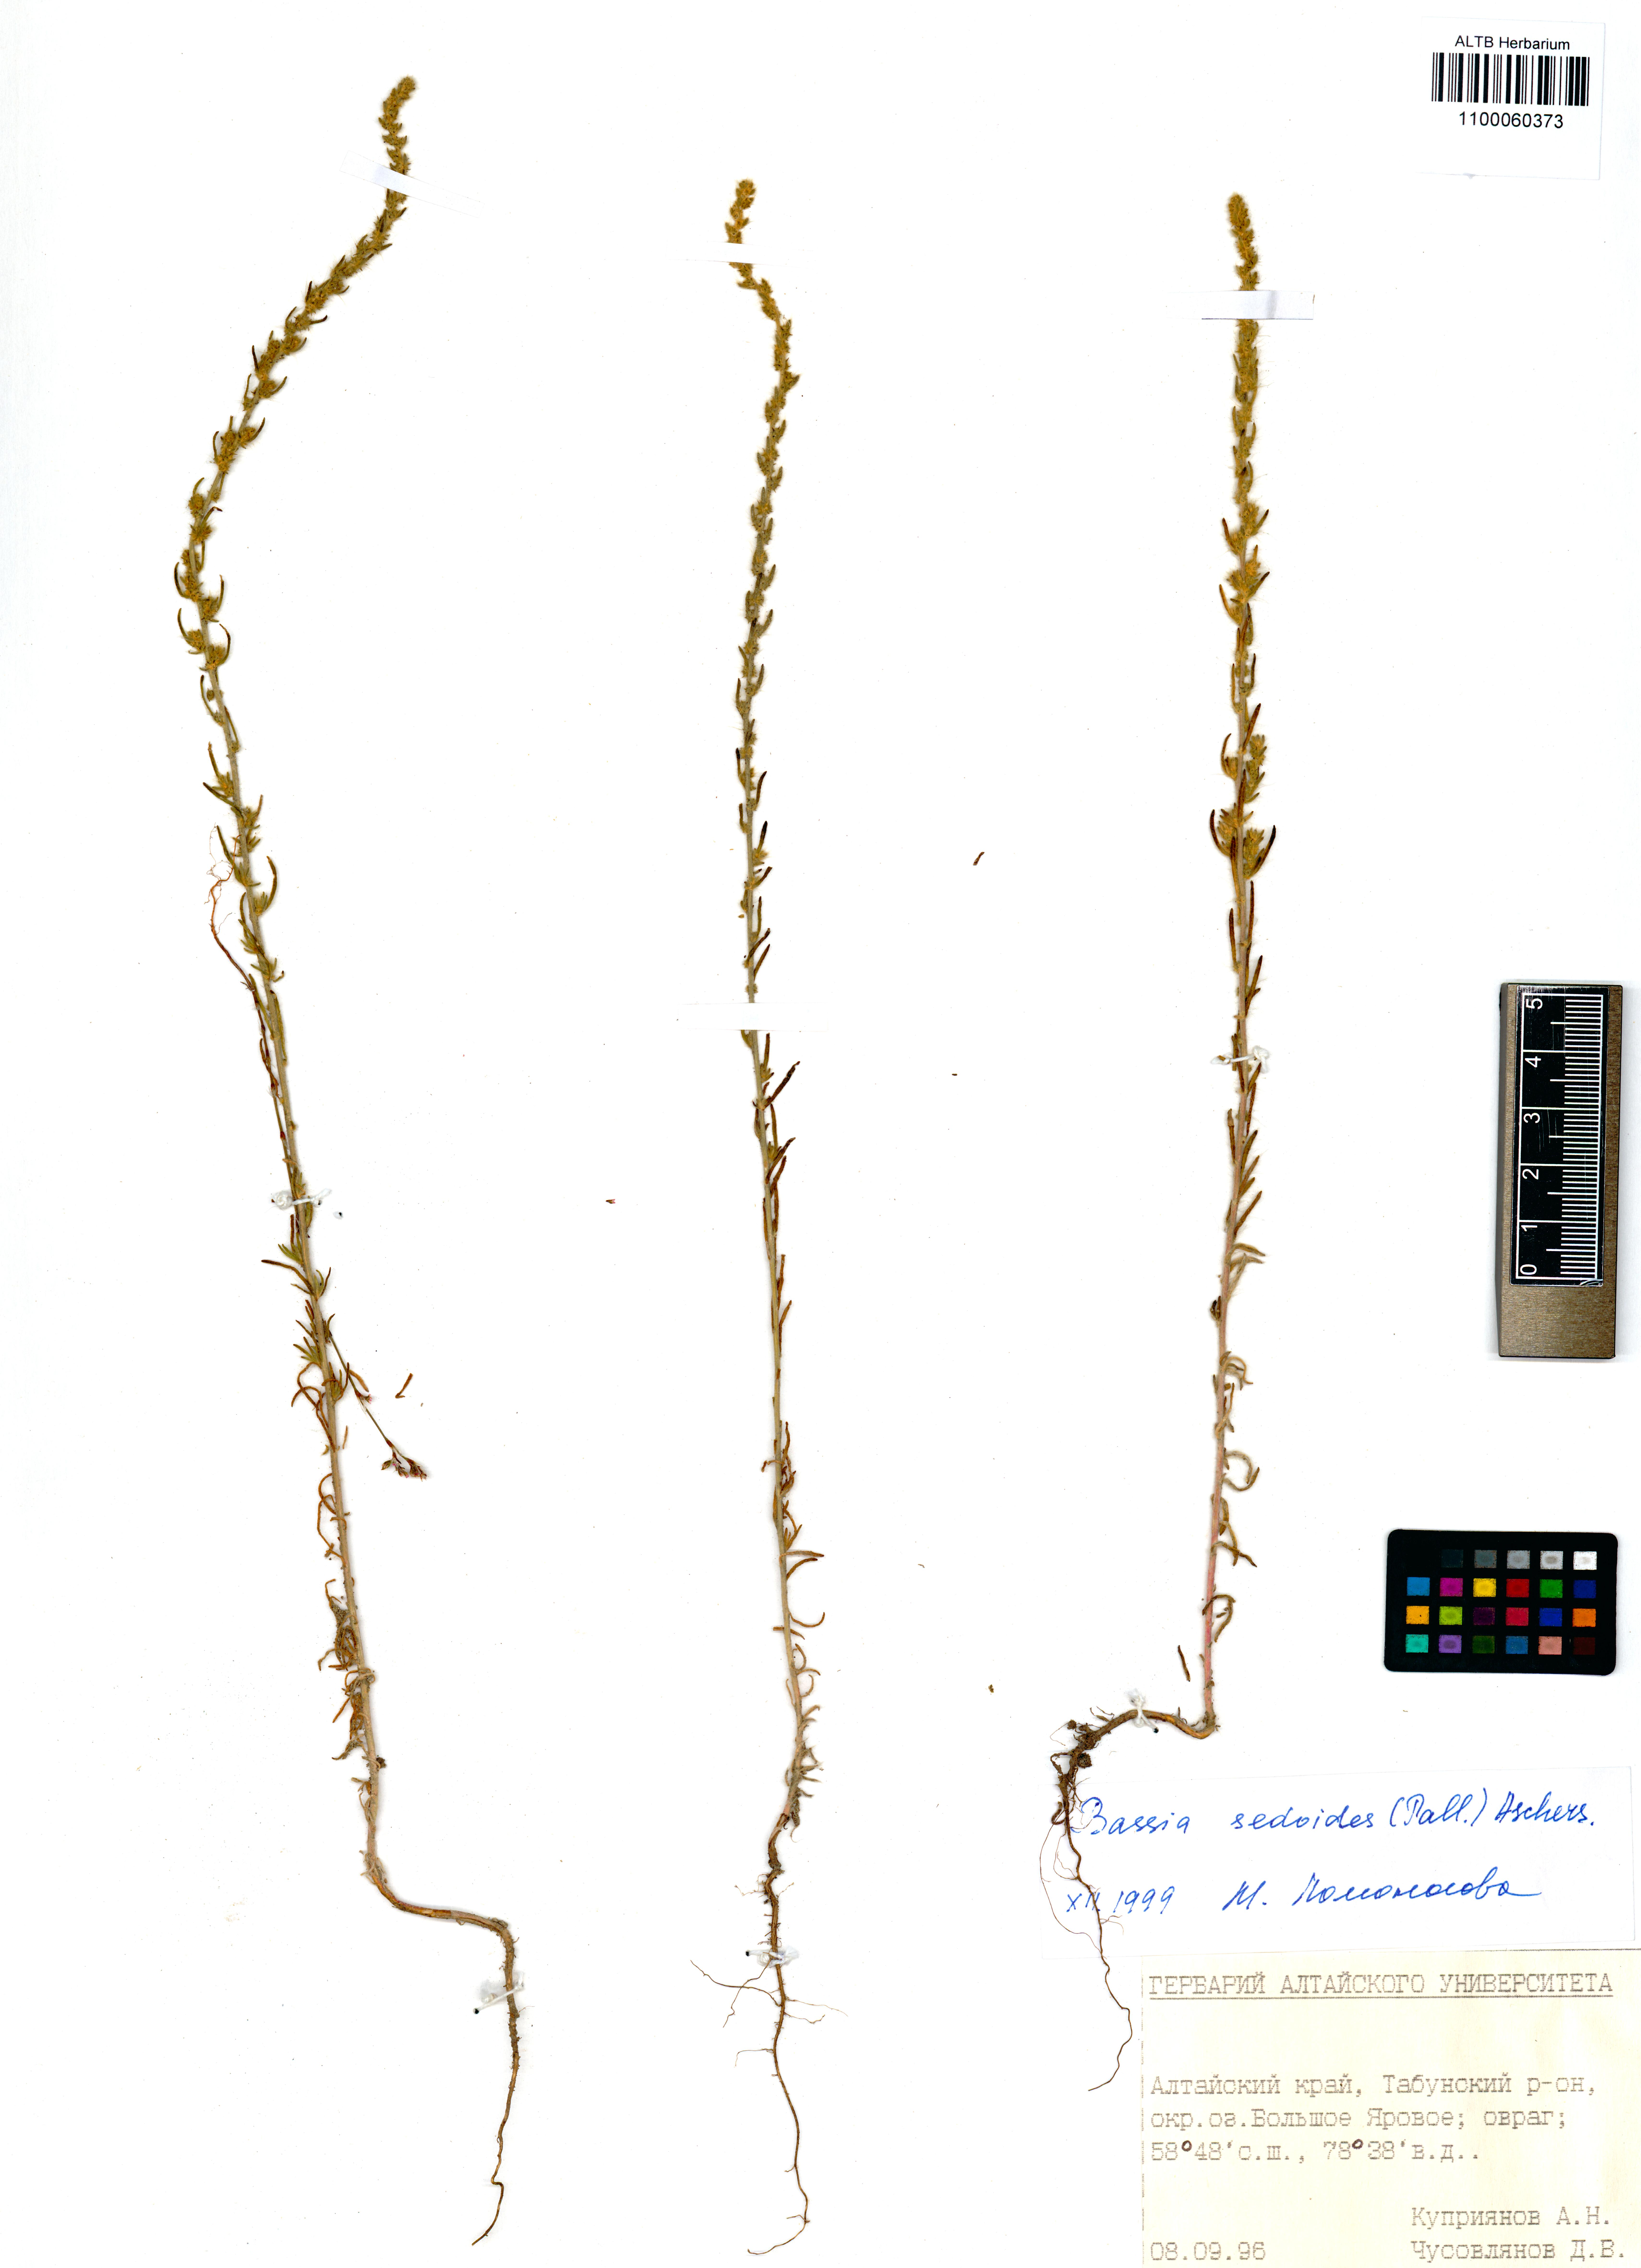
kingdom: Plantae
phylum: Tracheophyta
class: Magnoliopsida
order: Caryophyllales
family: Amaranthaceae
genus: Sedobassia
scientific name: Sedobassia sedoides
